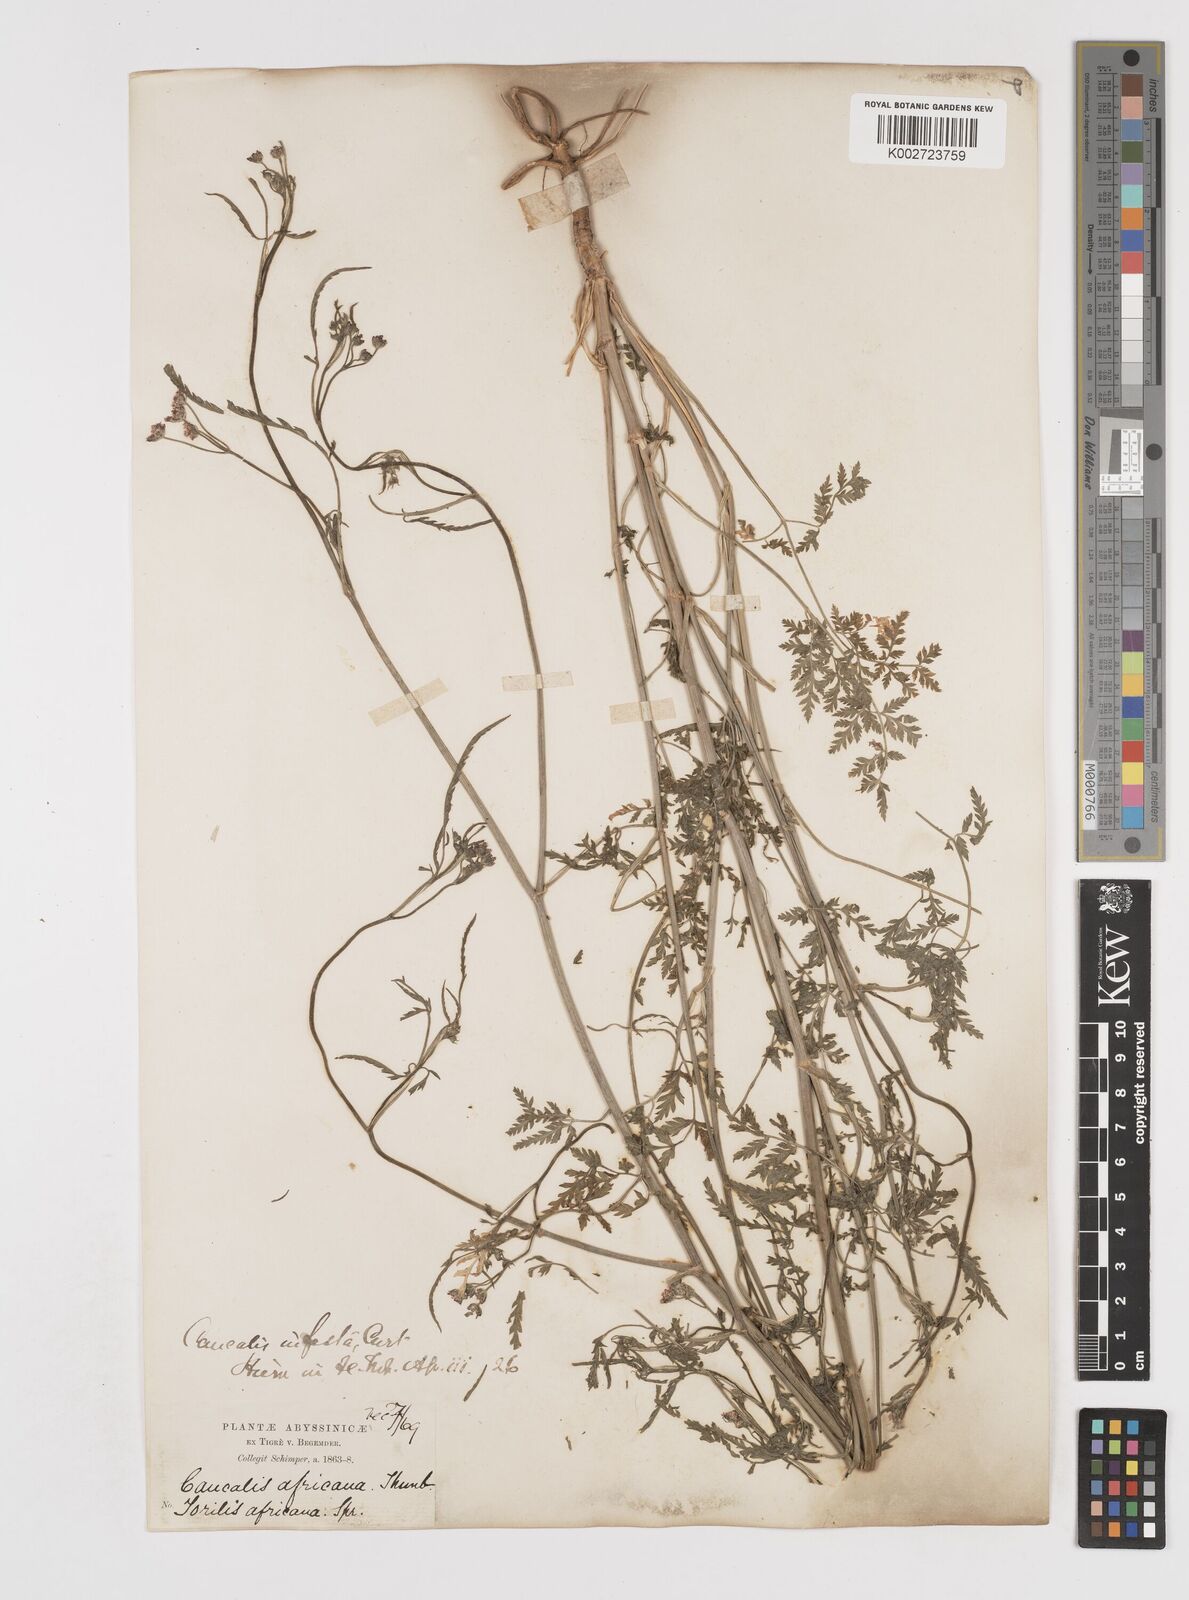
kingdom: Plantae
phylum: Tracheophyta
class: Magnoliopsida
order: Apiales
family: Apiaceae
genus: Torilis
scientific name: Torilis arvensis
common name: Spreading hedge-parsley
